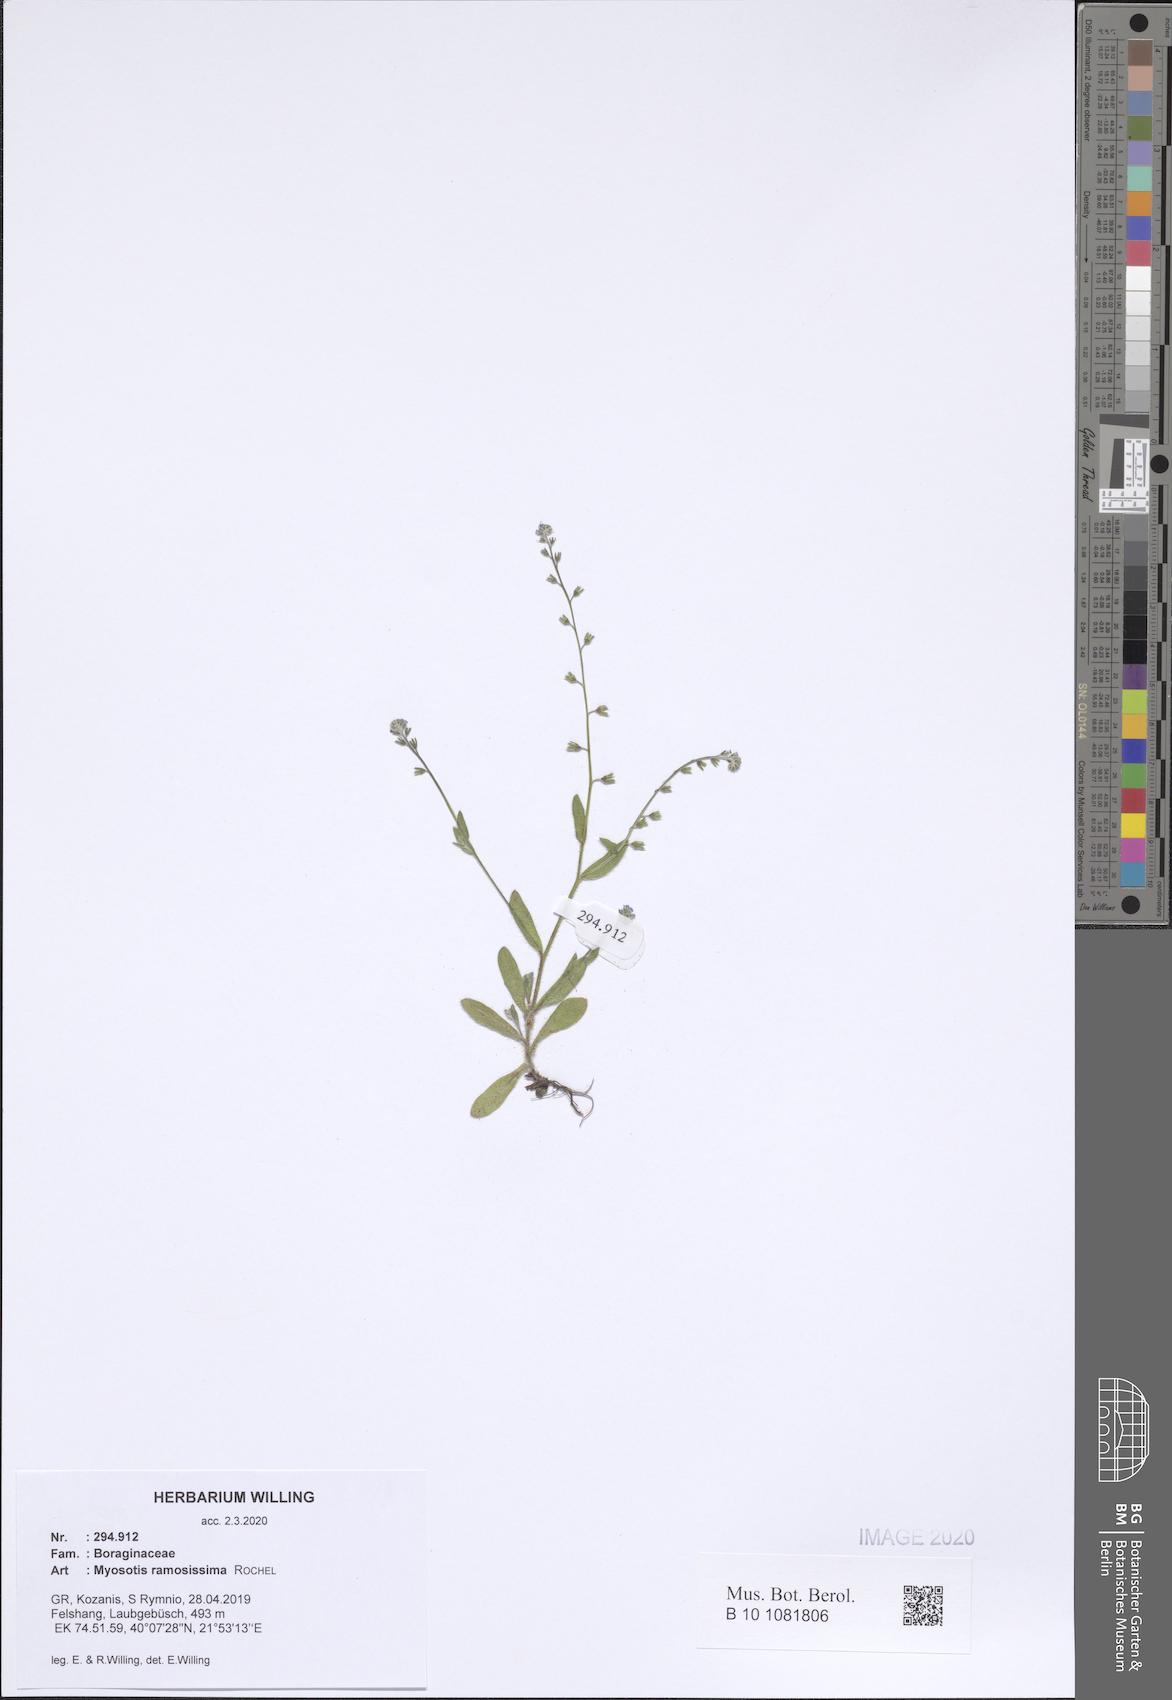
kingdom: Plantae
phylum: Tracheophyta
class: Magnoliopsida
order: Boraginales
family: Boraginaceae
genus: Myosotis
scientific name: Myosotis ramosissima
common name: Early forget-me-not
